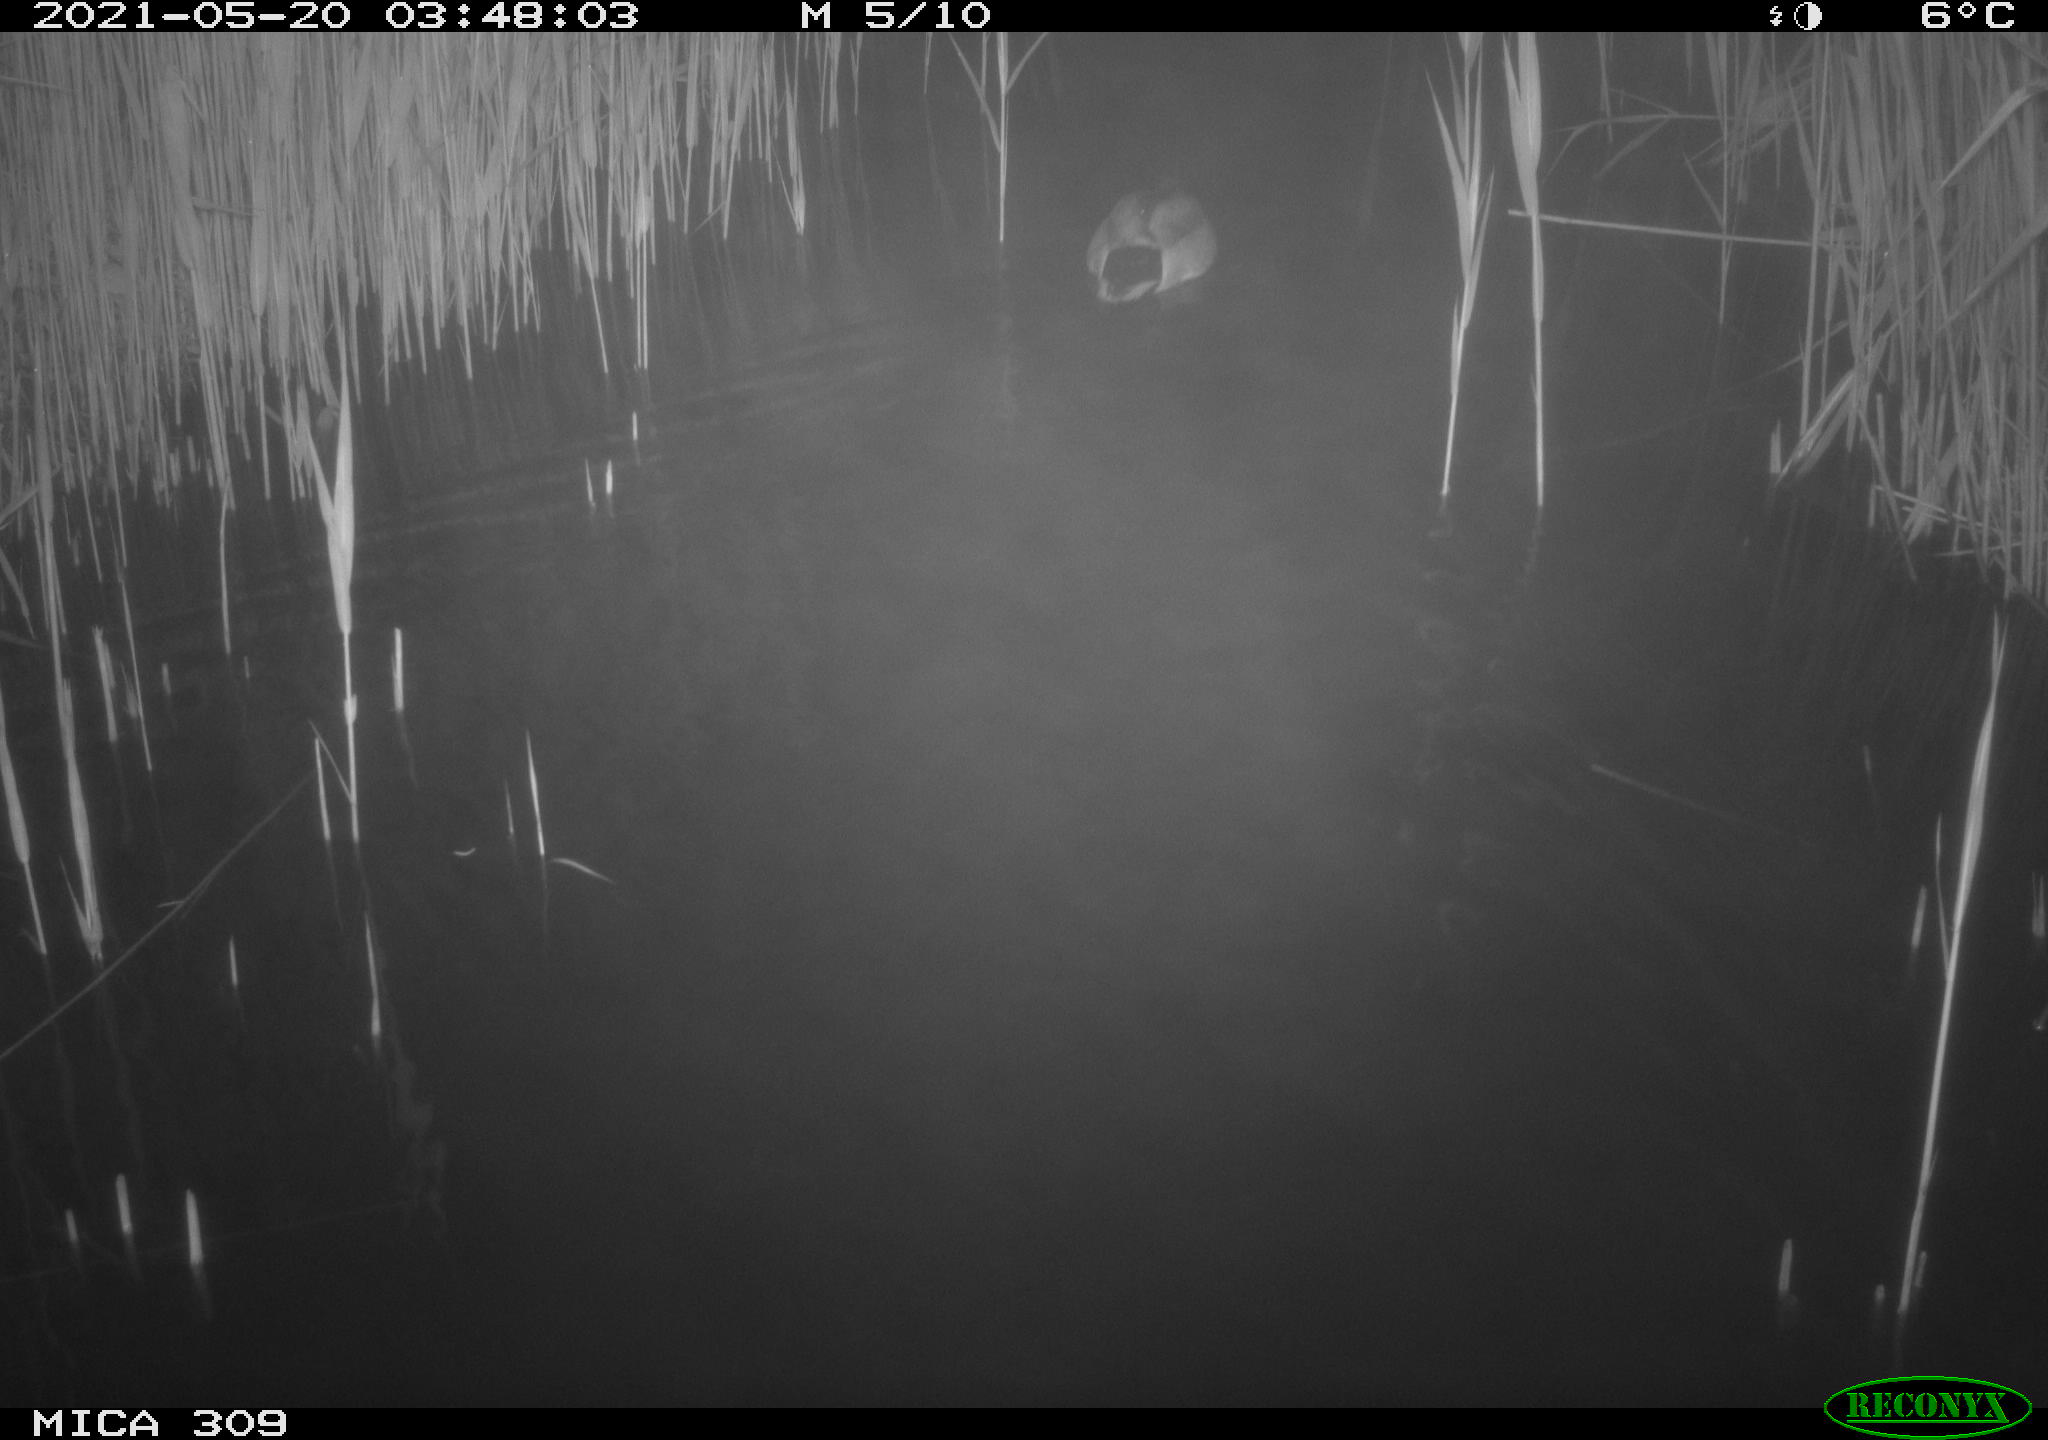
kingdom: Animalia
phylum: Chordata
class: Aves
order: Anseriformes
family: Anatidae
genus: Anas
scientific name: Anas platyrhynchos
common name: Mallard
